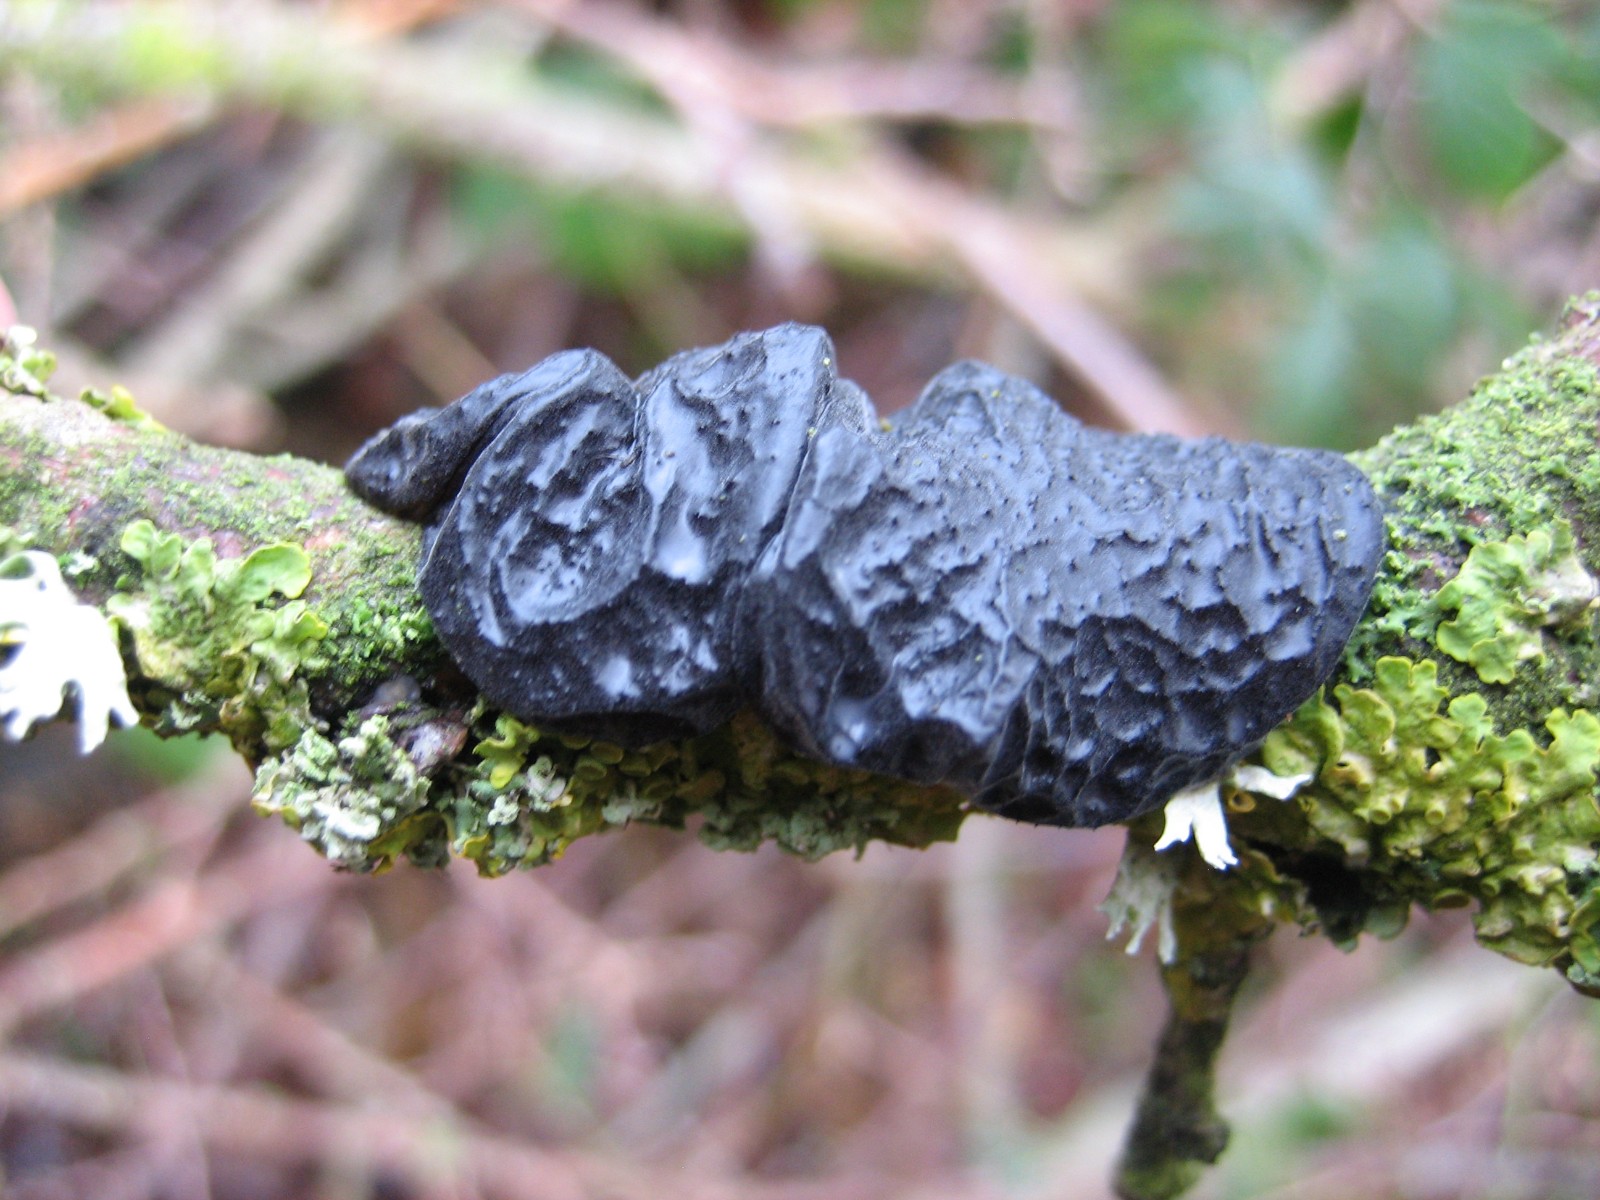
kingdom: Fungi
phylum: Basidiomycota
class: Agaricomycetes
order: Auriculariales
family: Auriculariaceae
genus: Exidia
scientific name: Exidia glandulosa
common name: ege-bævretop
